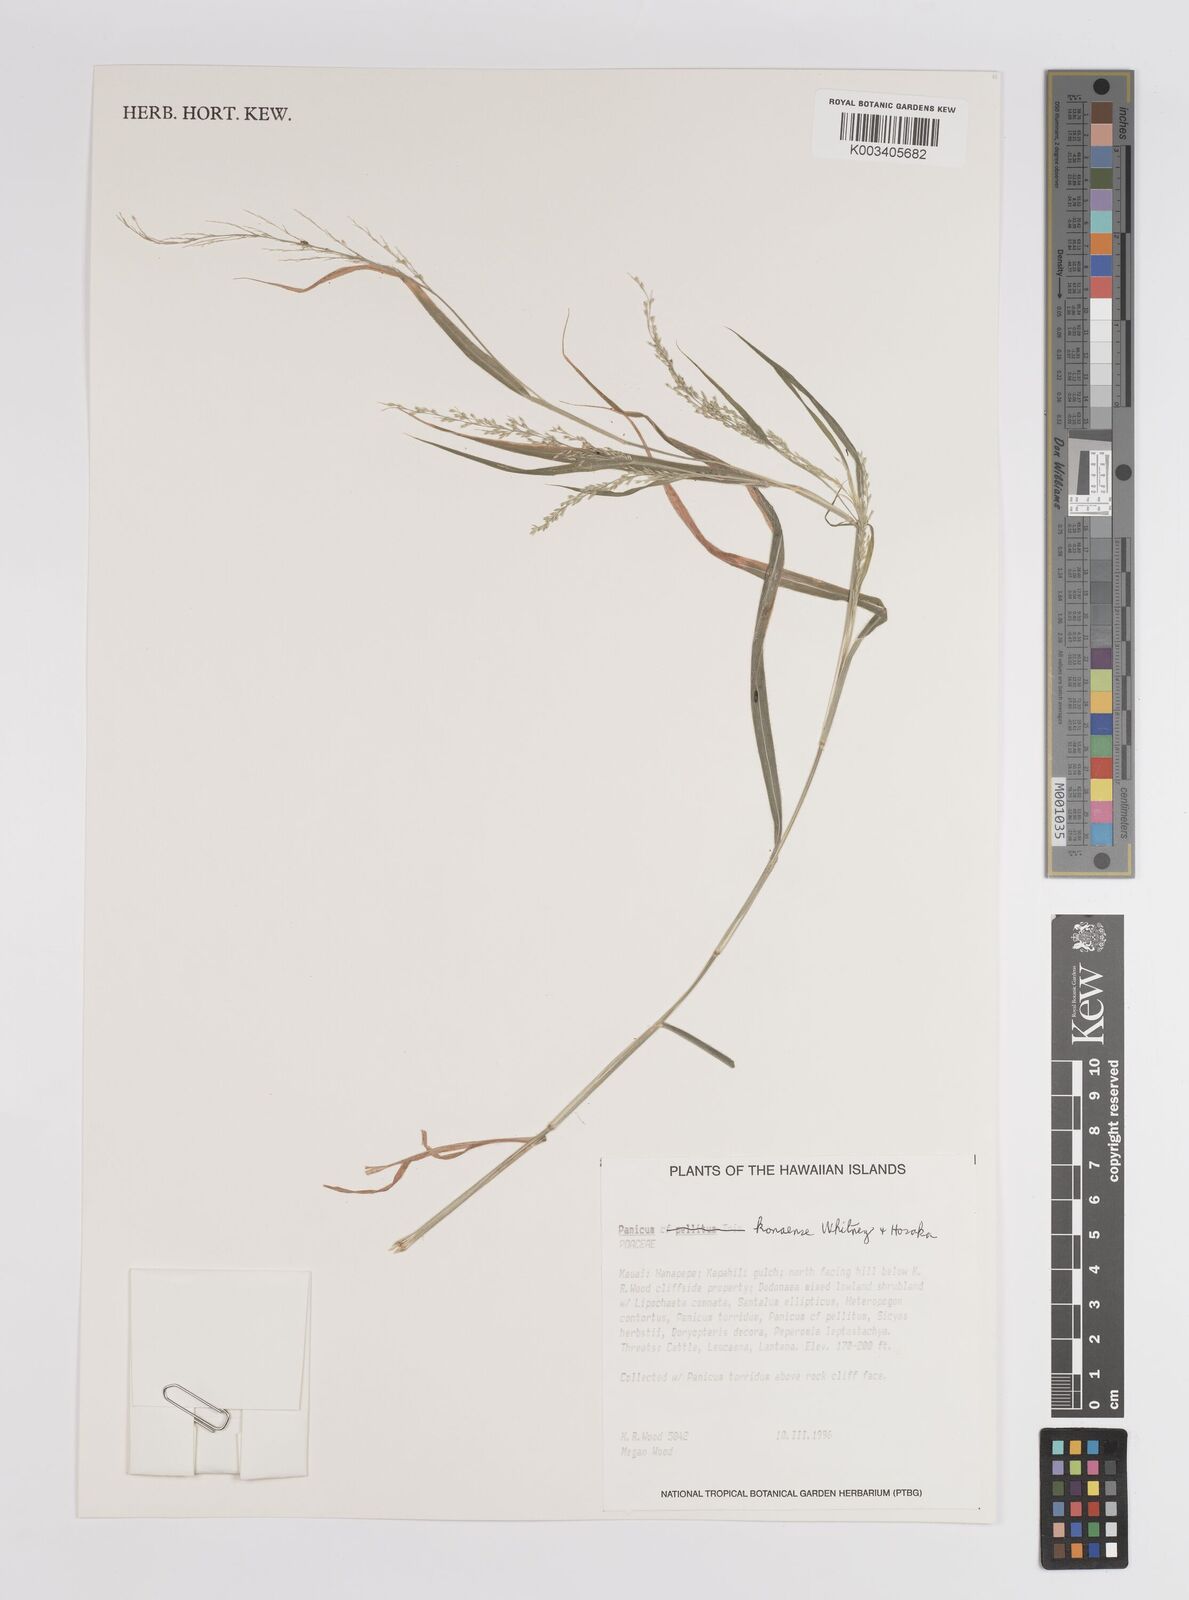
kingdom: Plantae
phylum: Tracheophyta
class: Liliopsida
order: Poales
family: Poaceae
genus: Panicum
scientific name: Panicum konaense
